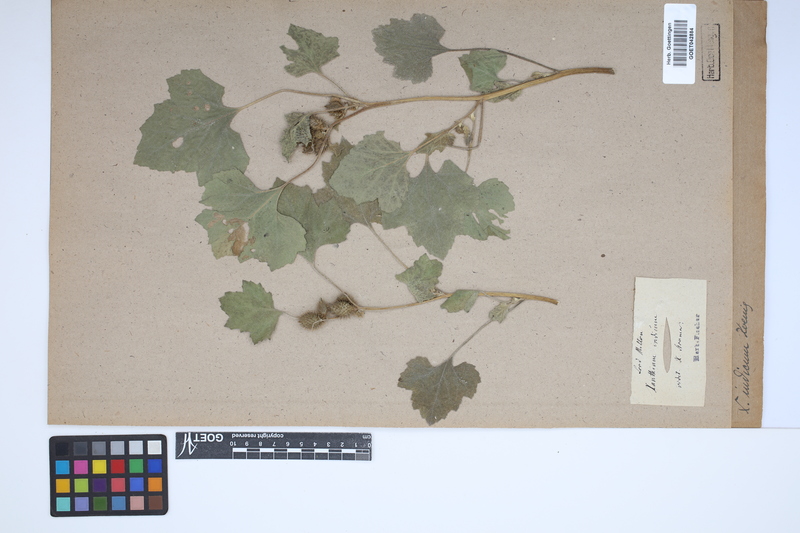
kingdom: Plantae
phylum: Tracheophyta
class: Magnoliopsida
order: Asterales
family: Asteraceae
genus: Xanthium
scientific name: Xanthium strumarium
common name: Rough cocklebur
